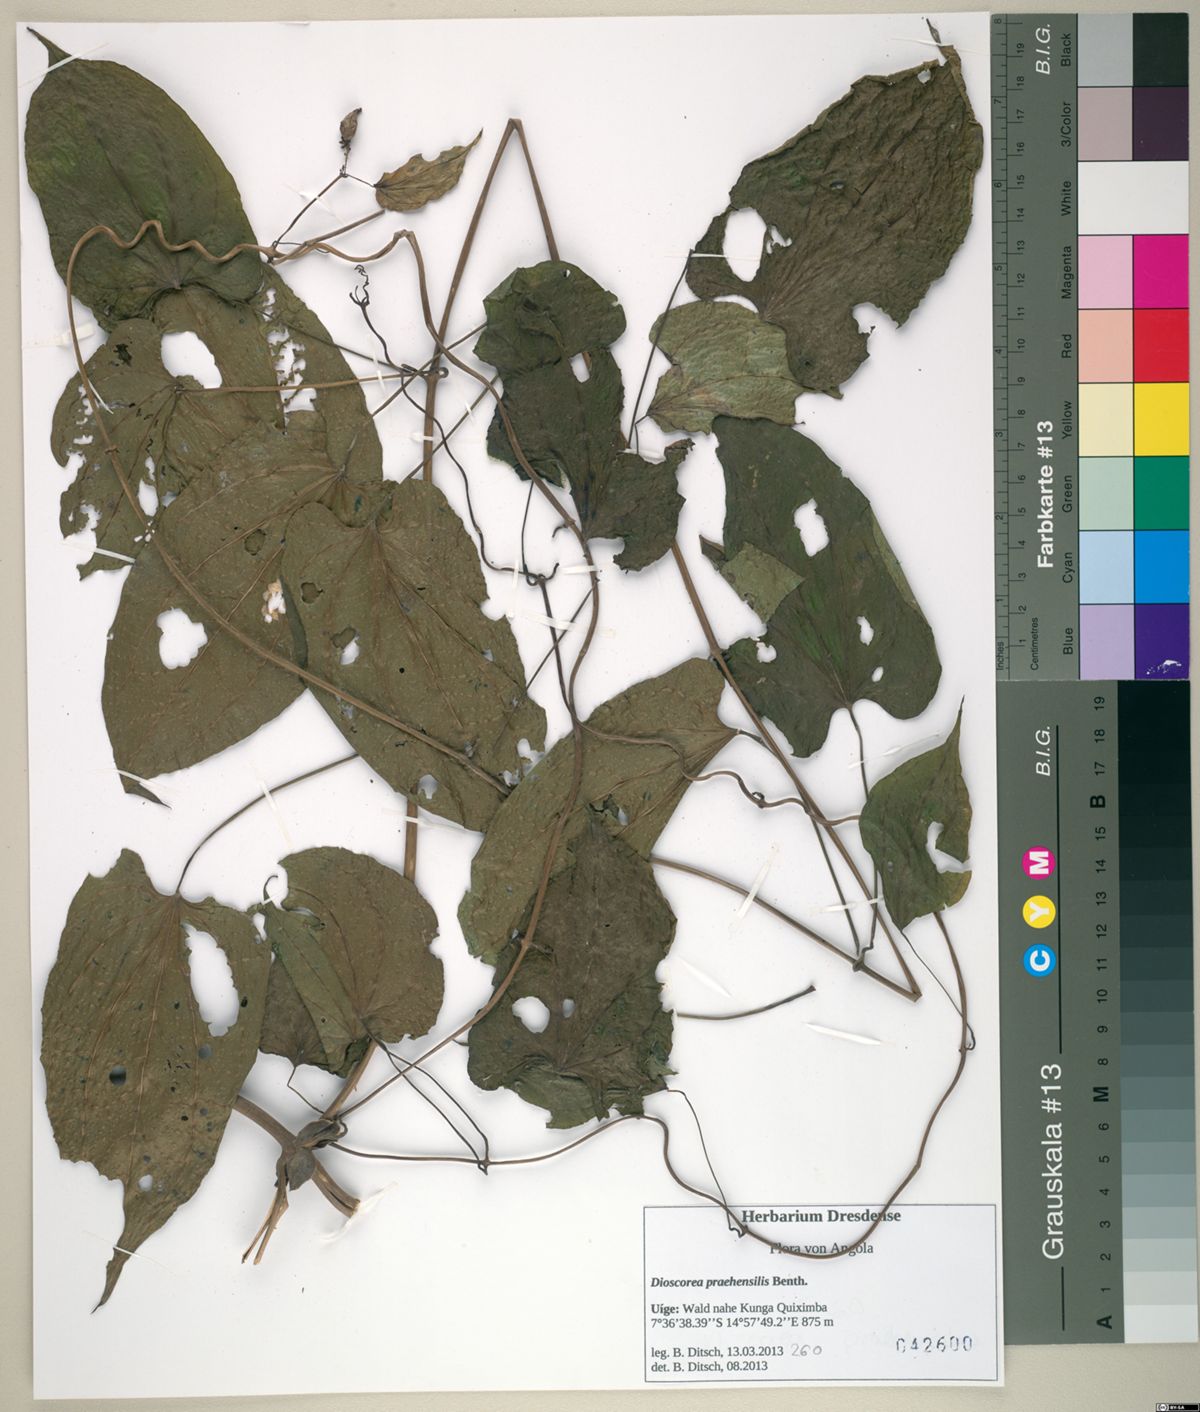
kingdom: Plantae
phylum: Tracheophyta
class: Liliopsida
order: Dioscoreales
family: Dioscoreaceae
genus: Dioscorea
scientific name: Dioscorea praehensilis
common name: Bush yam
